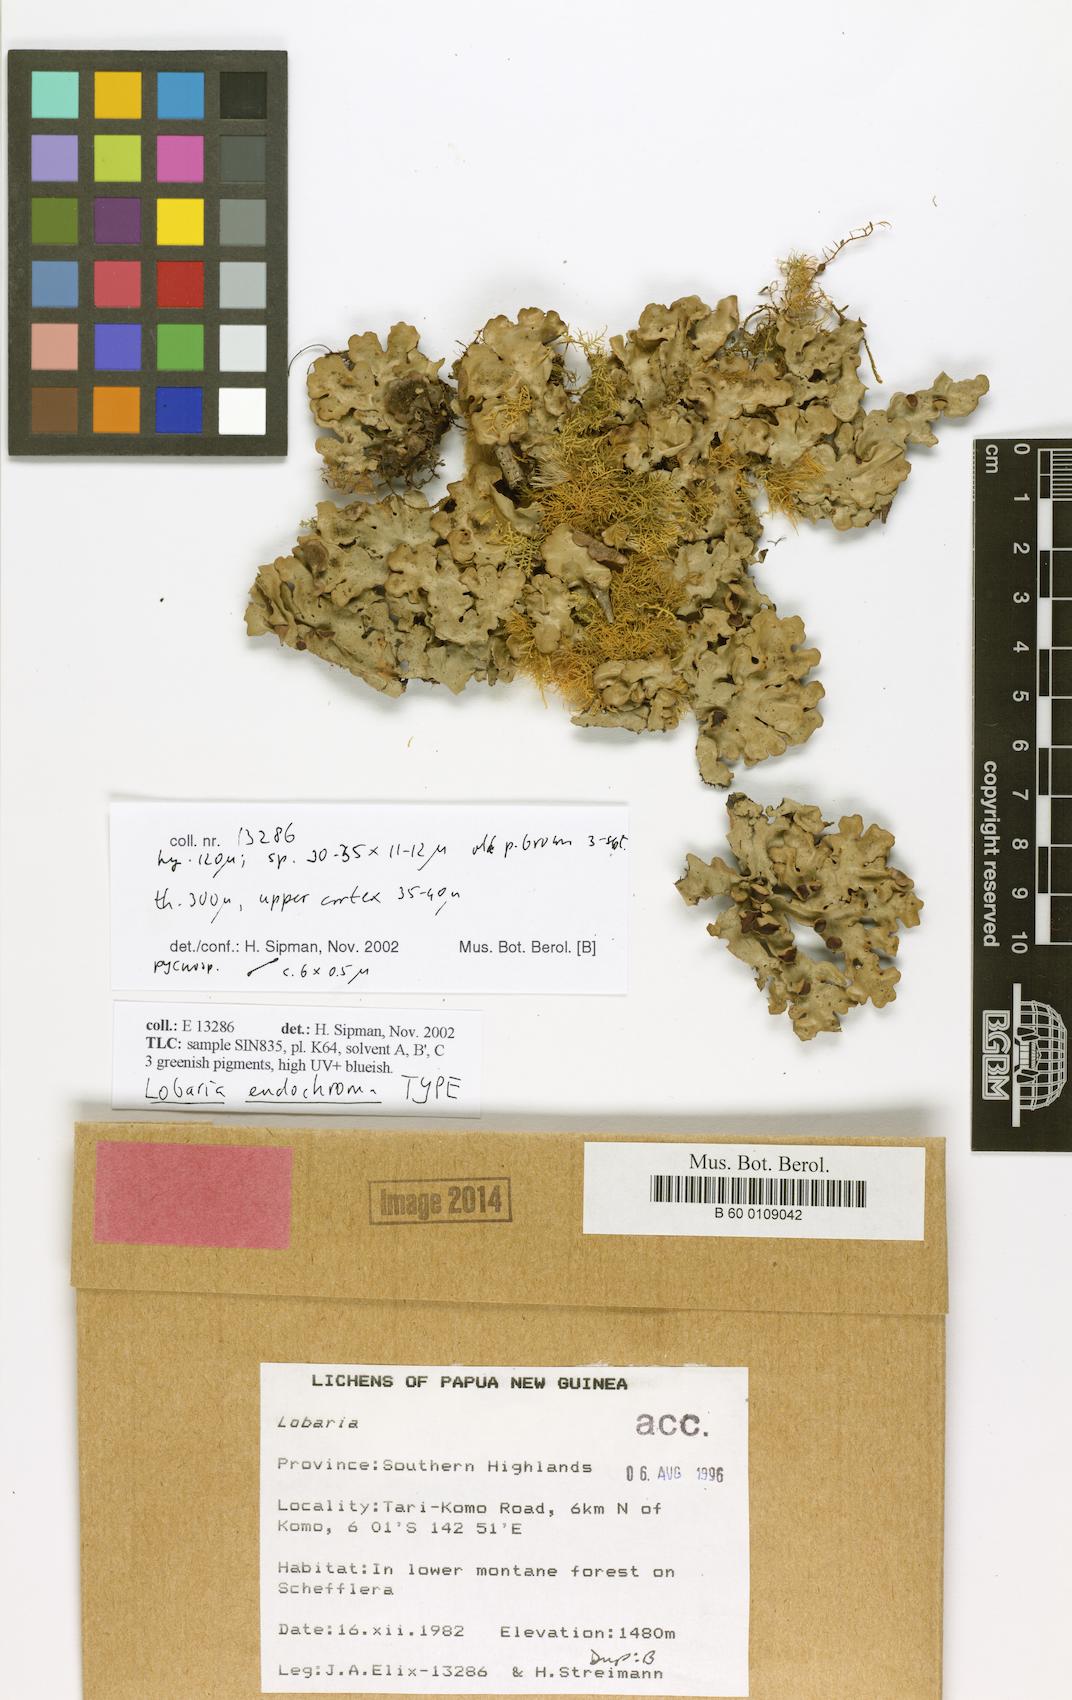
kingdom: Fungi
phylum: Ascomycota
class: Lecanoromycetes
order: Peltigerales
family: Lobariaceae
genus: Lobaria
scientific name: Lobaria endochroma
